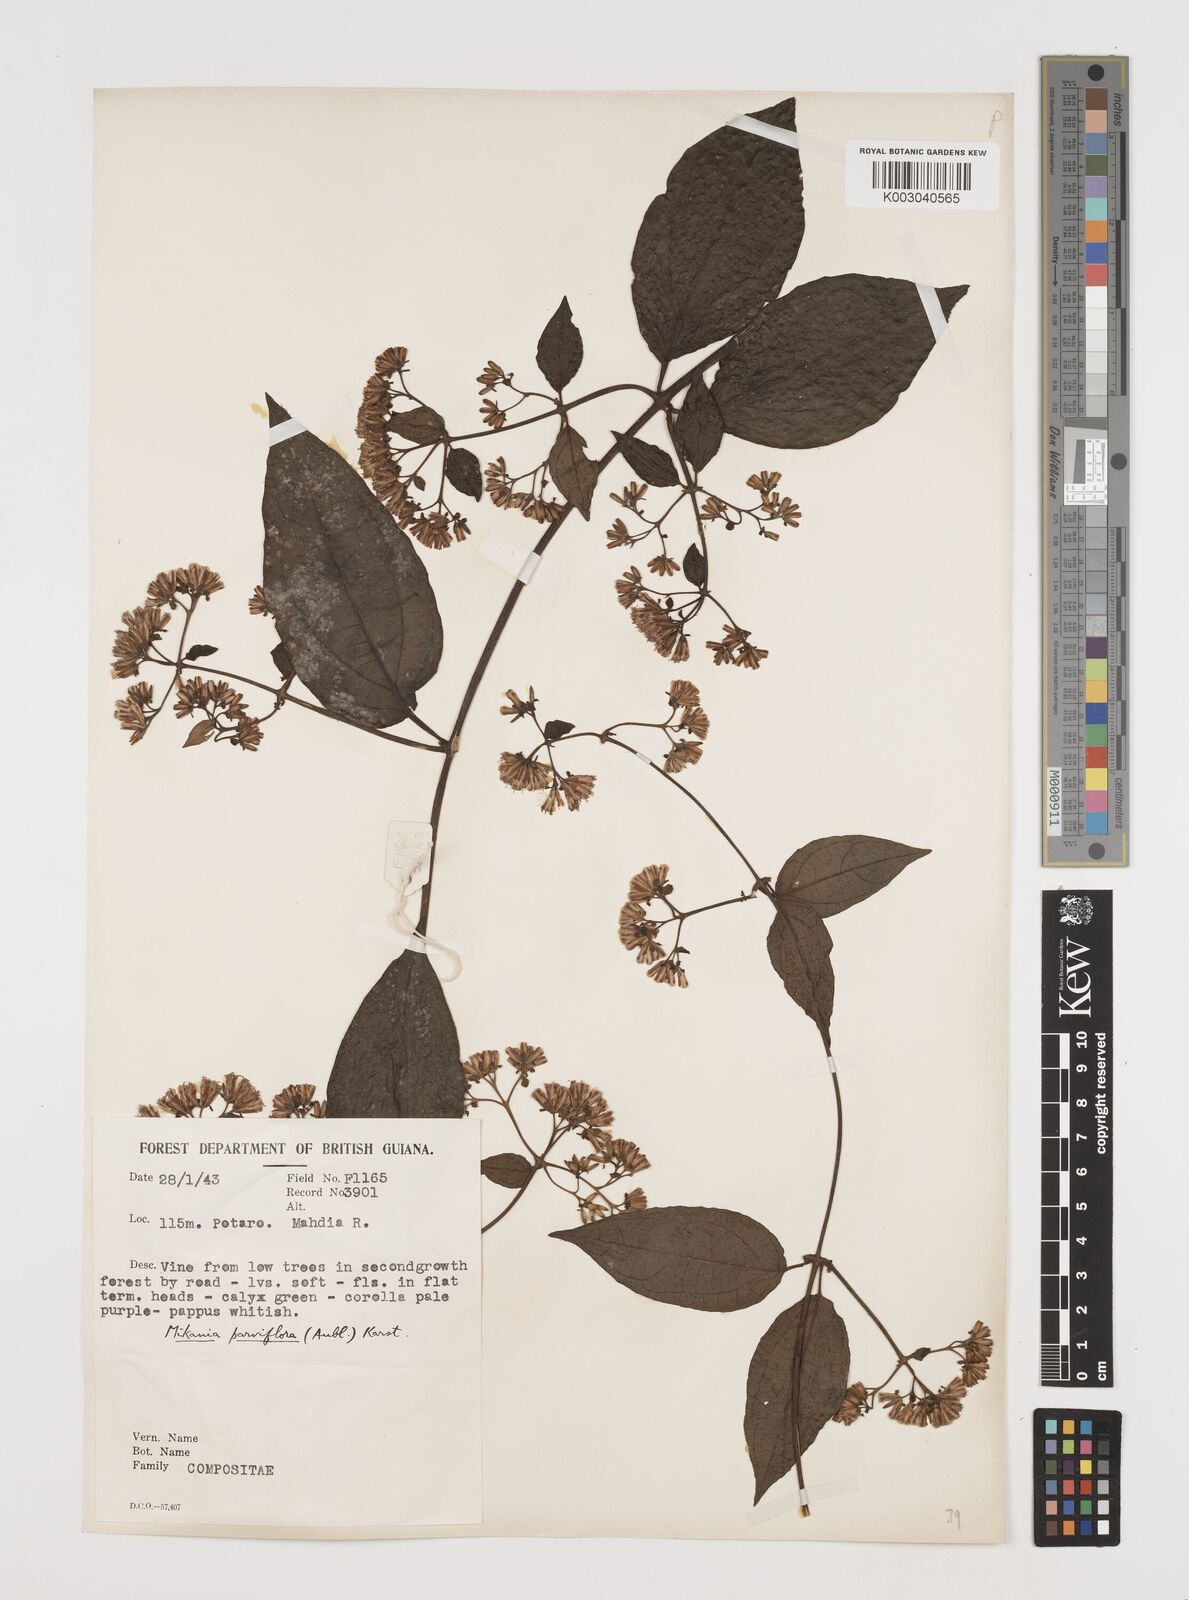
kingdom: Plantae
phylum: Tracheophyta
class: Magnoliopsida
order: Asterales
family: Asteraceae
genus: Mikania
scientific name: Mikania parviflora
